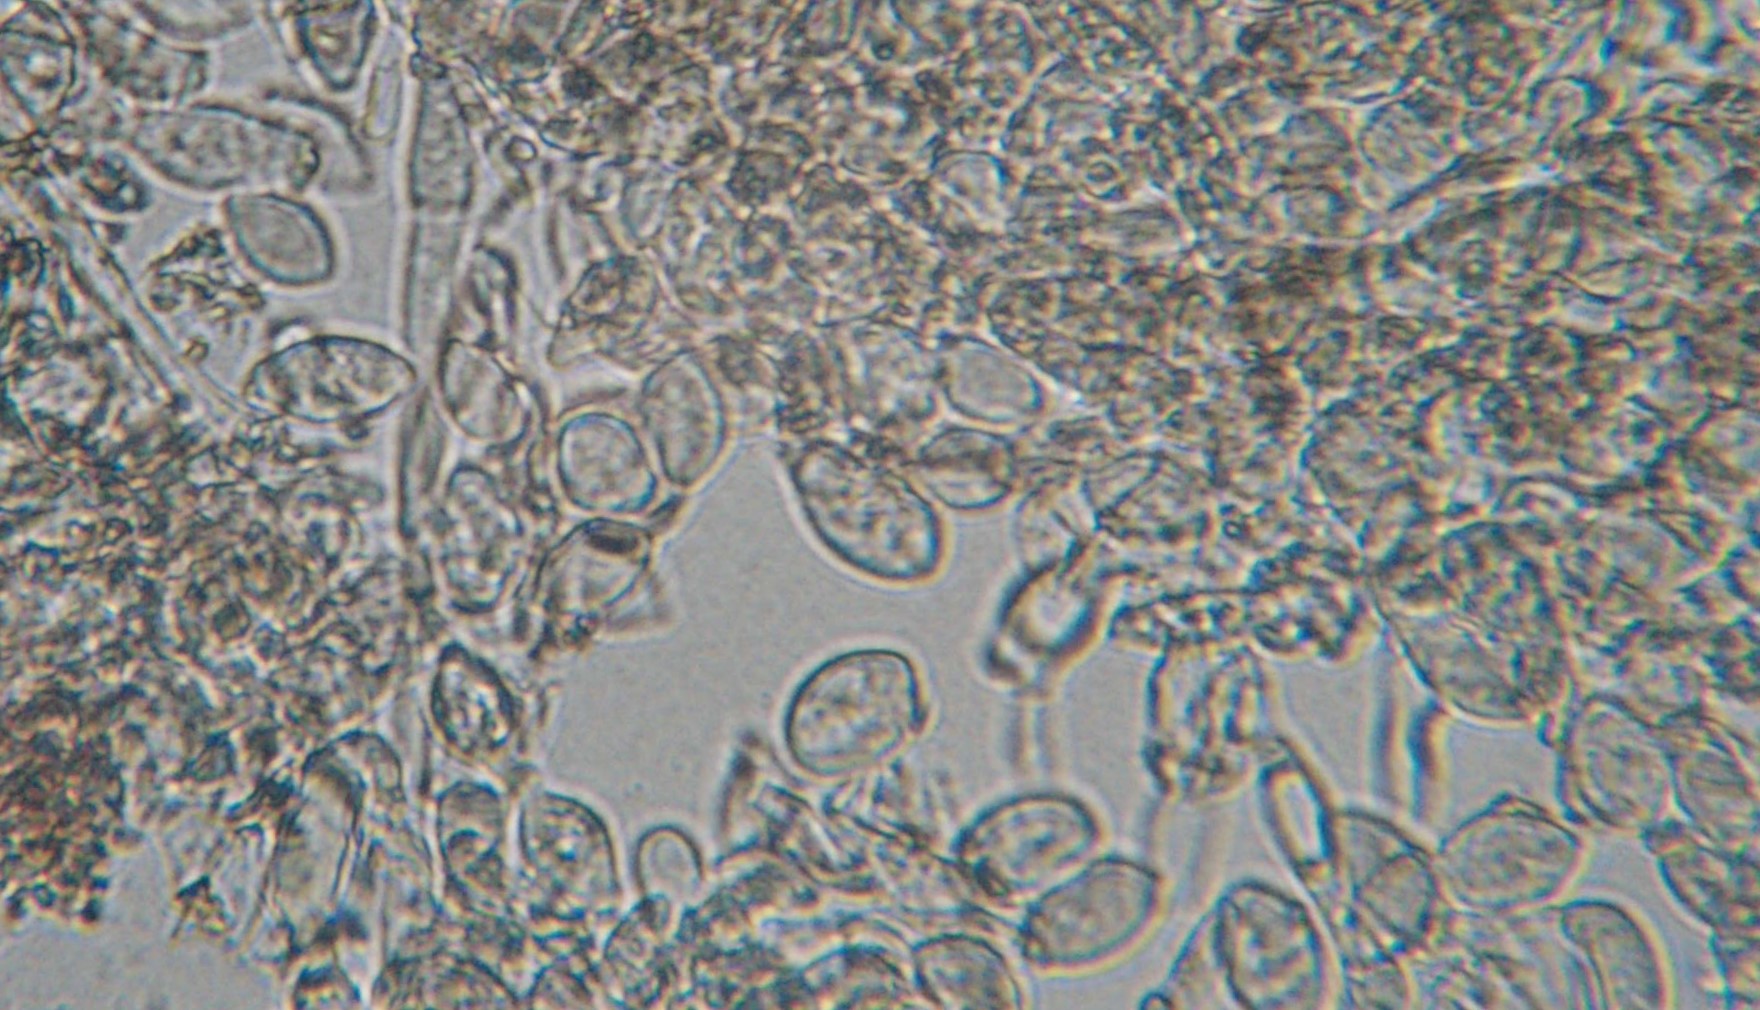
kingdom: Fungi
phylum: Ascomycota
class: Leotiomycetes
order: Helotiales
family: Sclerotiniaceae
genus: Monilinia
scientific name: Monilinia laxa
